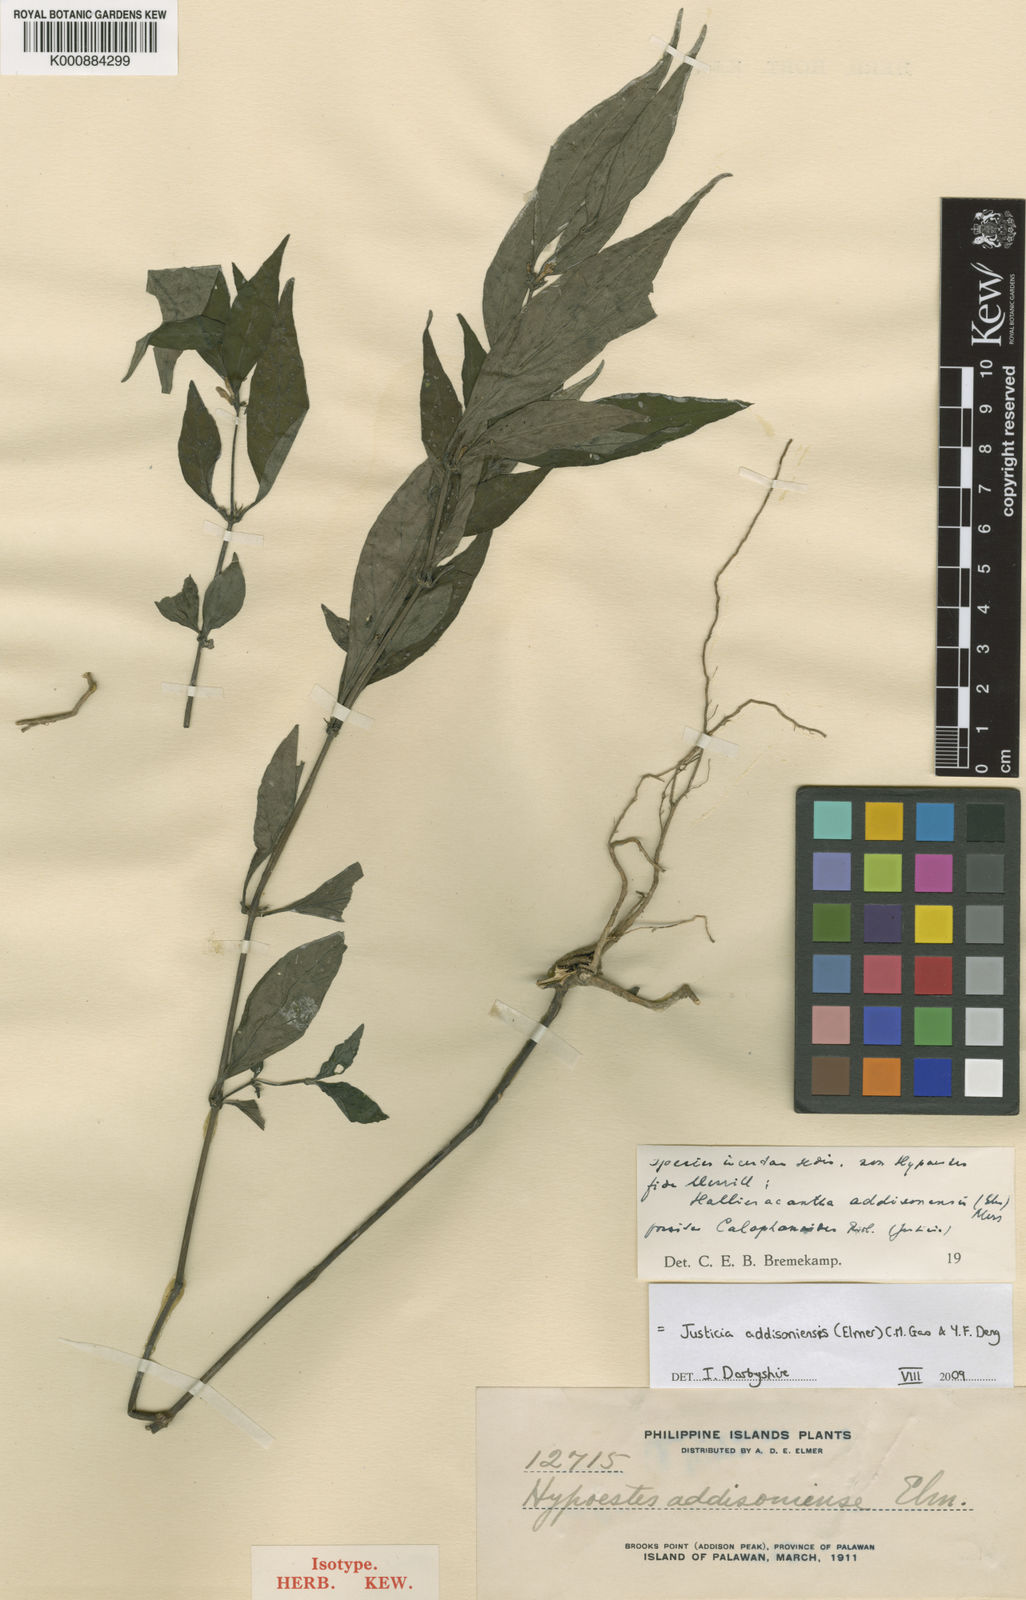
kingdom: Plantae
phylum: Tracheophyta
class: Magnoliopsida
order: Lamiales
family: Acanthaceae
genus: Justicia
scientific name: Justicia addisoniensis
